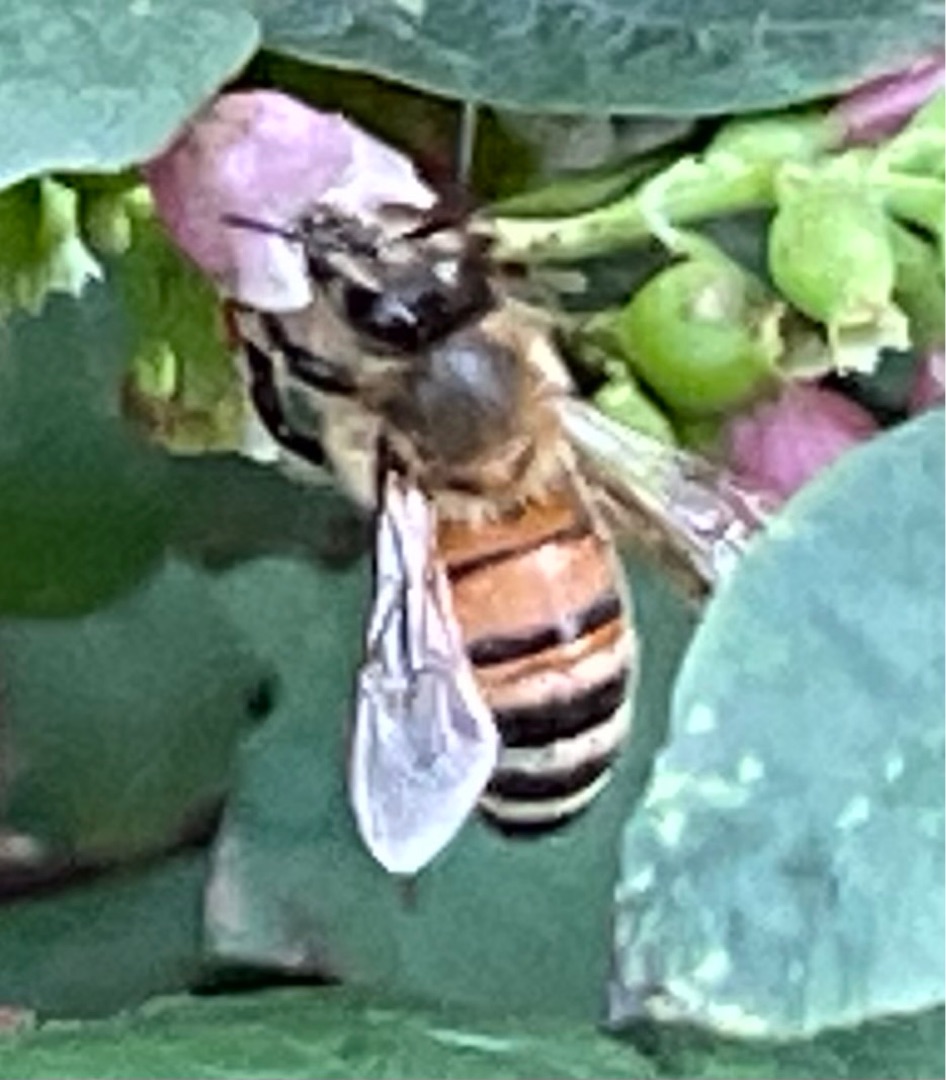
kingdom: Animalia
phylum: Arthropoda
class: Insecta
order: Hymenoptera
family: Apidae
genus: Apis
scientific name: Apis mellifera
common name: Honningbi
